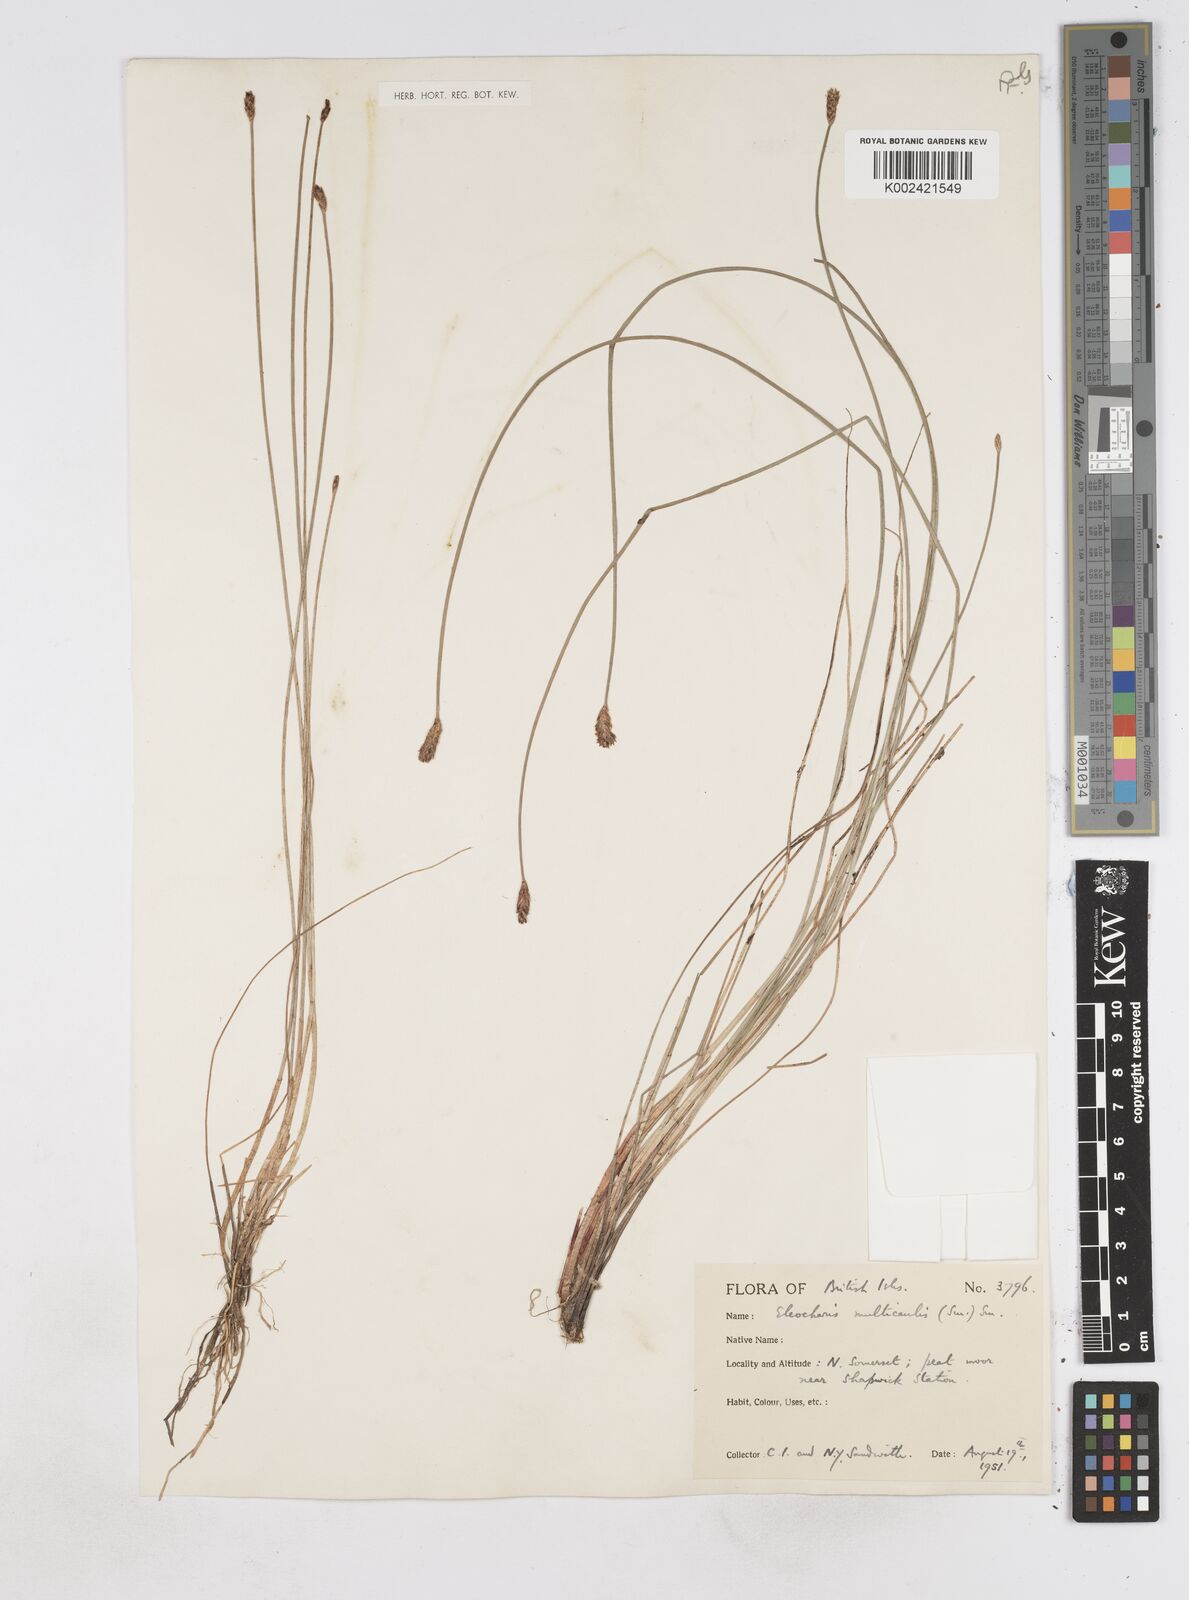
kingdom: Plantae
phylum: Tracheophyta
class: Liliopsida
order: Poales
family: Cyperaceae
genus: Eleocharis
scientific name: Eleocharis multicaulis
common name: Many-stalked spike-rush
